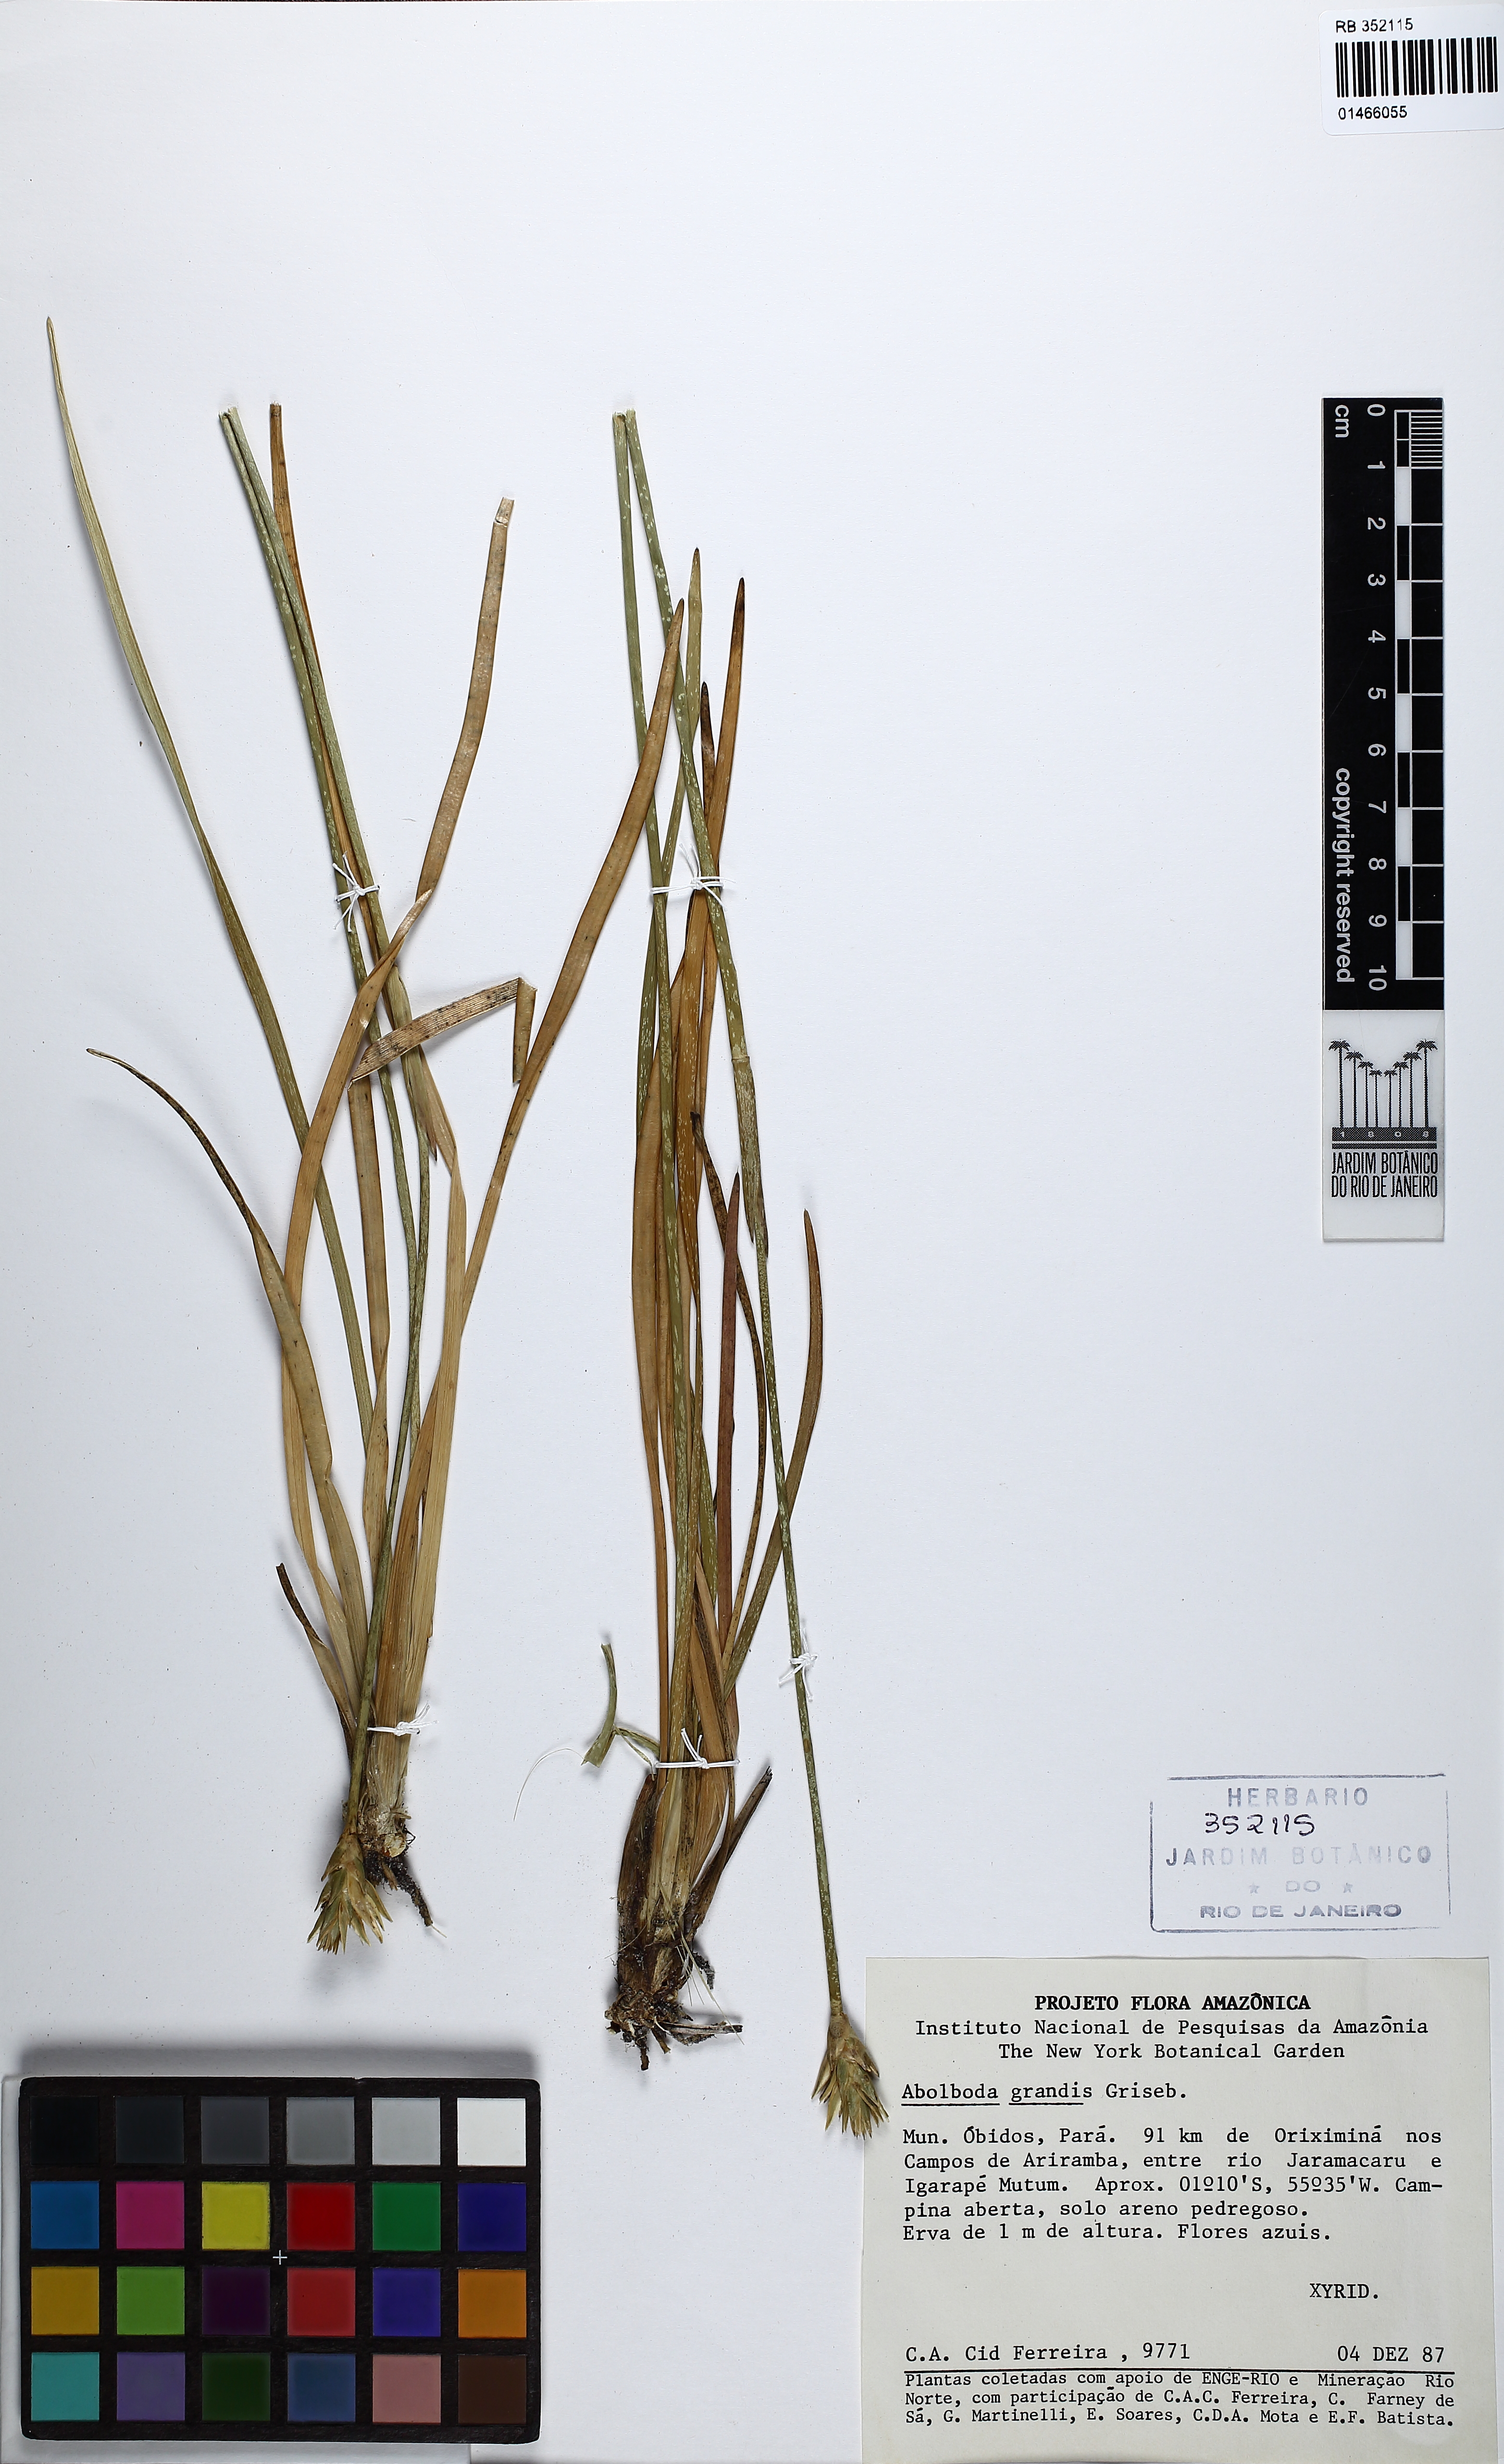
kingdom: Plantae
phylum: Tracheophyta
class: Liliopsida
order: Poales
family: Xyridaceae
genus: Abolboda
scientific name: Abolboda grandis
